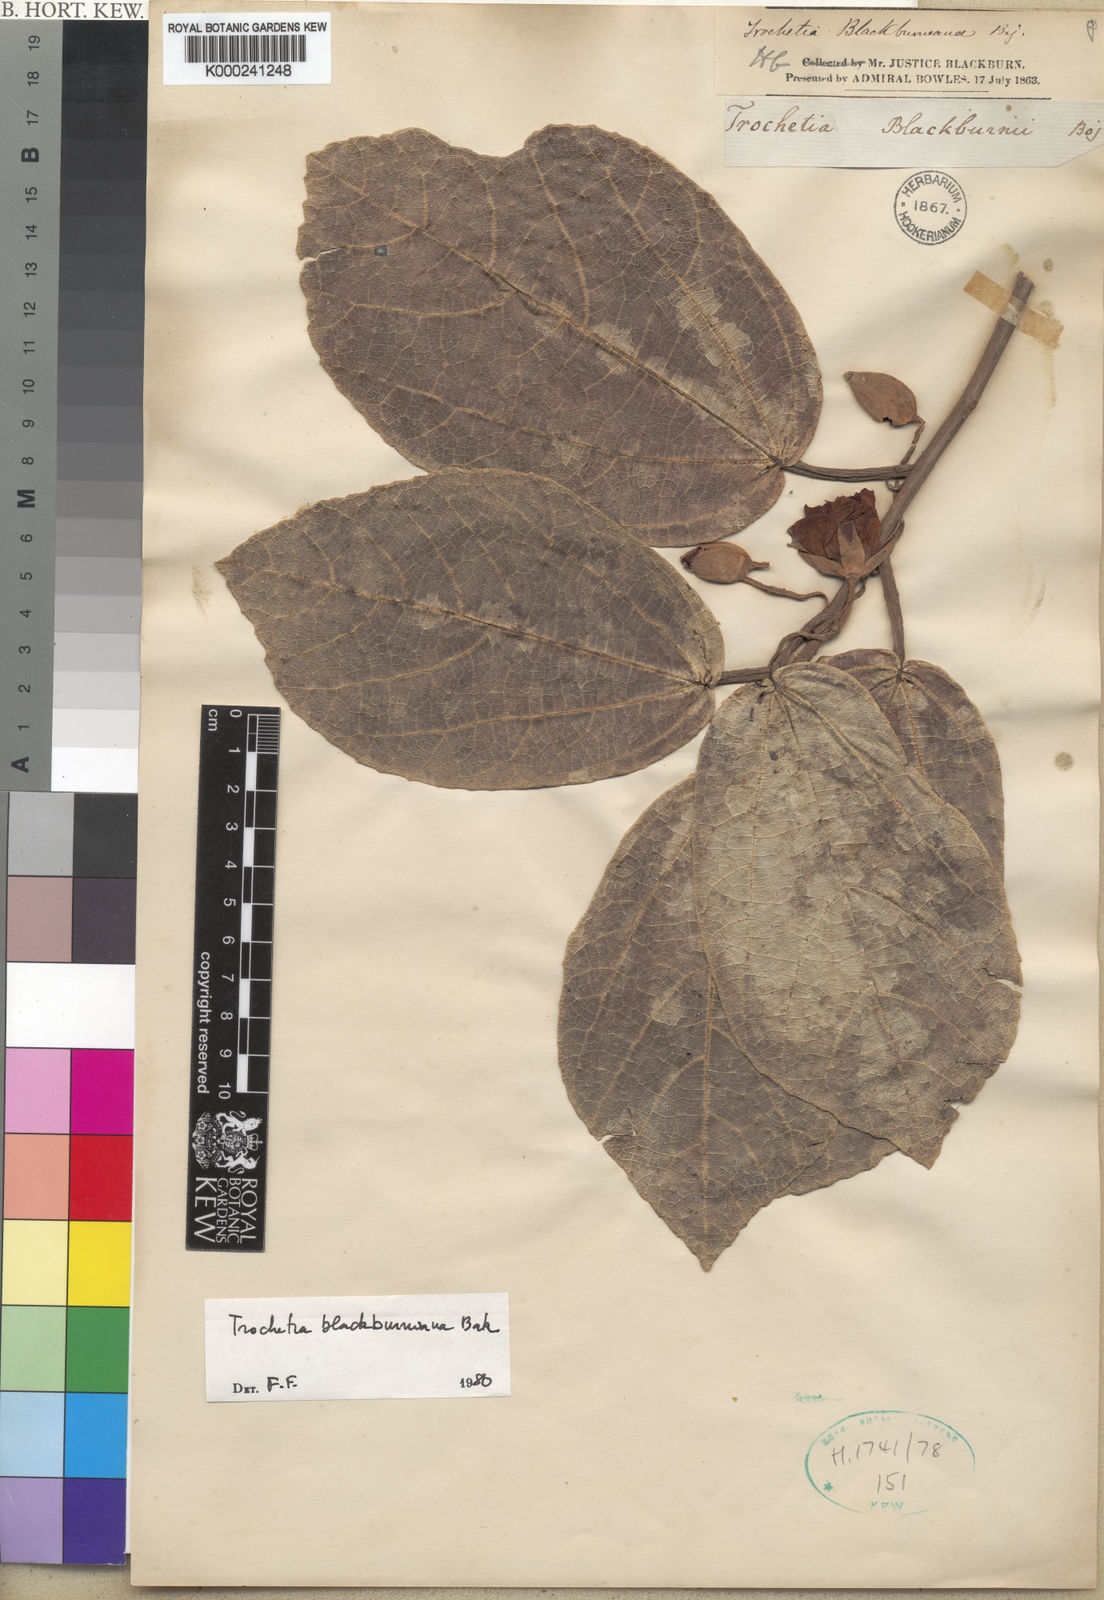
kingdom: Plantae
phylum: Tracheophyta
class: Magnoliopsida
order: Malvales
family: Malvaceae
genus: Ruizia
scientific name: Ruizia
